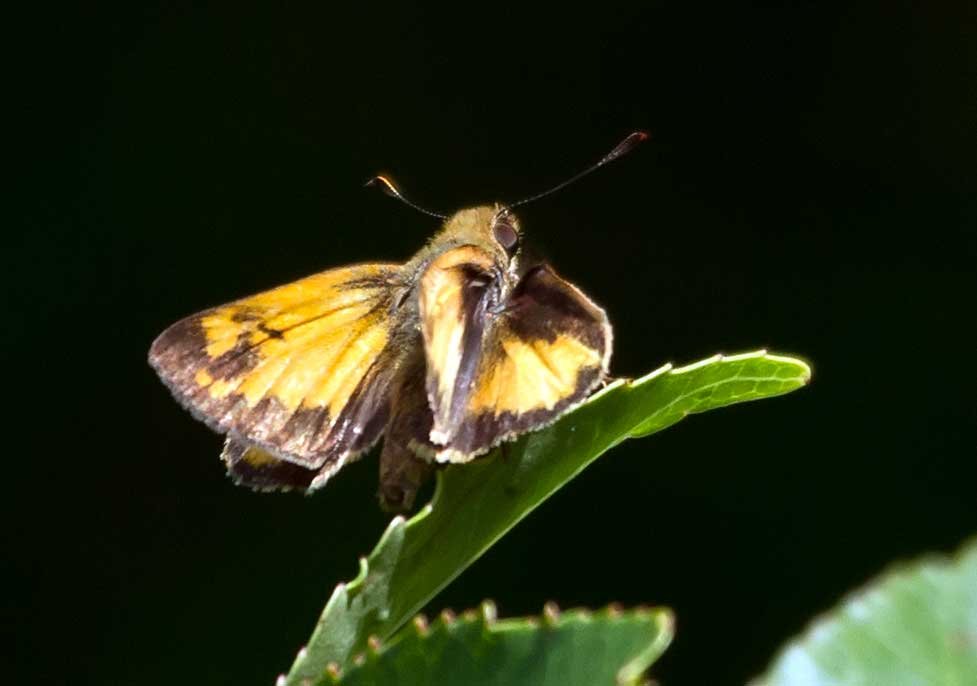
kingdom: Animalia
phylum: Arthropoda
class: Insecta
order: Lepidoptera
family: Hesperiidae
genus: Lon
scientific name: Lon zabulon
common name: Zabulon Skipper
